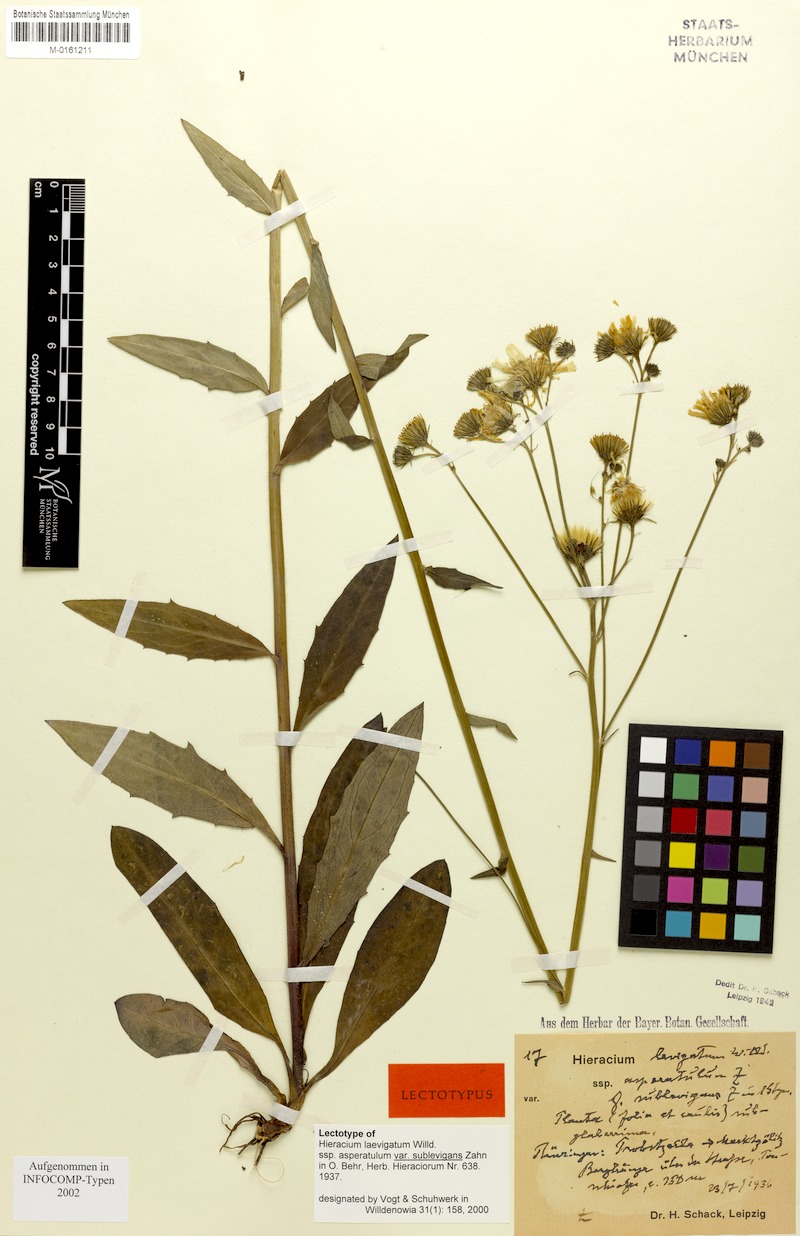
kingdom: Plantae
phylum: Tracheophyta
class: Magnoliopsida
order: Asterales
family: Asteraceae
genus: Hieracium
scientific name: Hieracium laevigatum
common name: Smooth hawkweed
